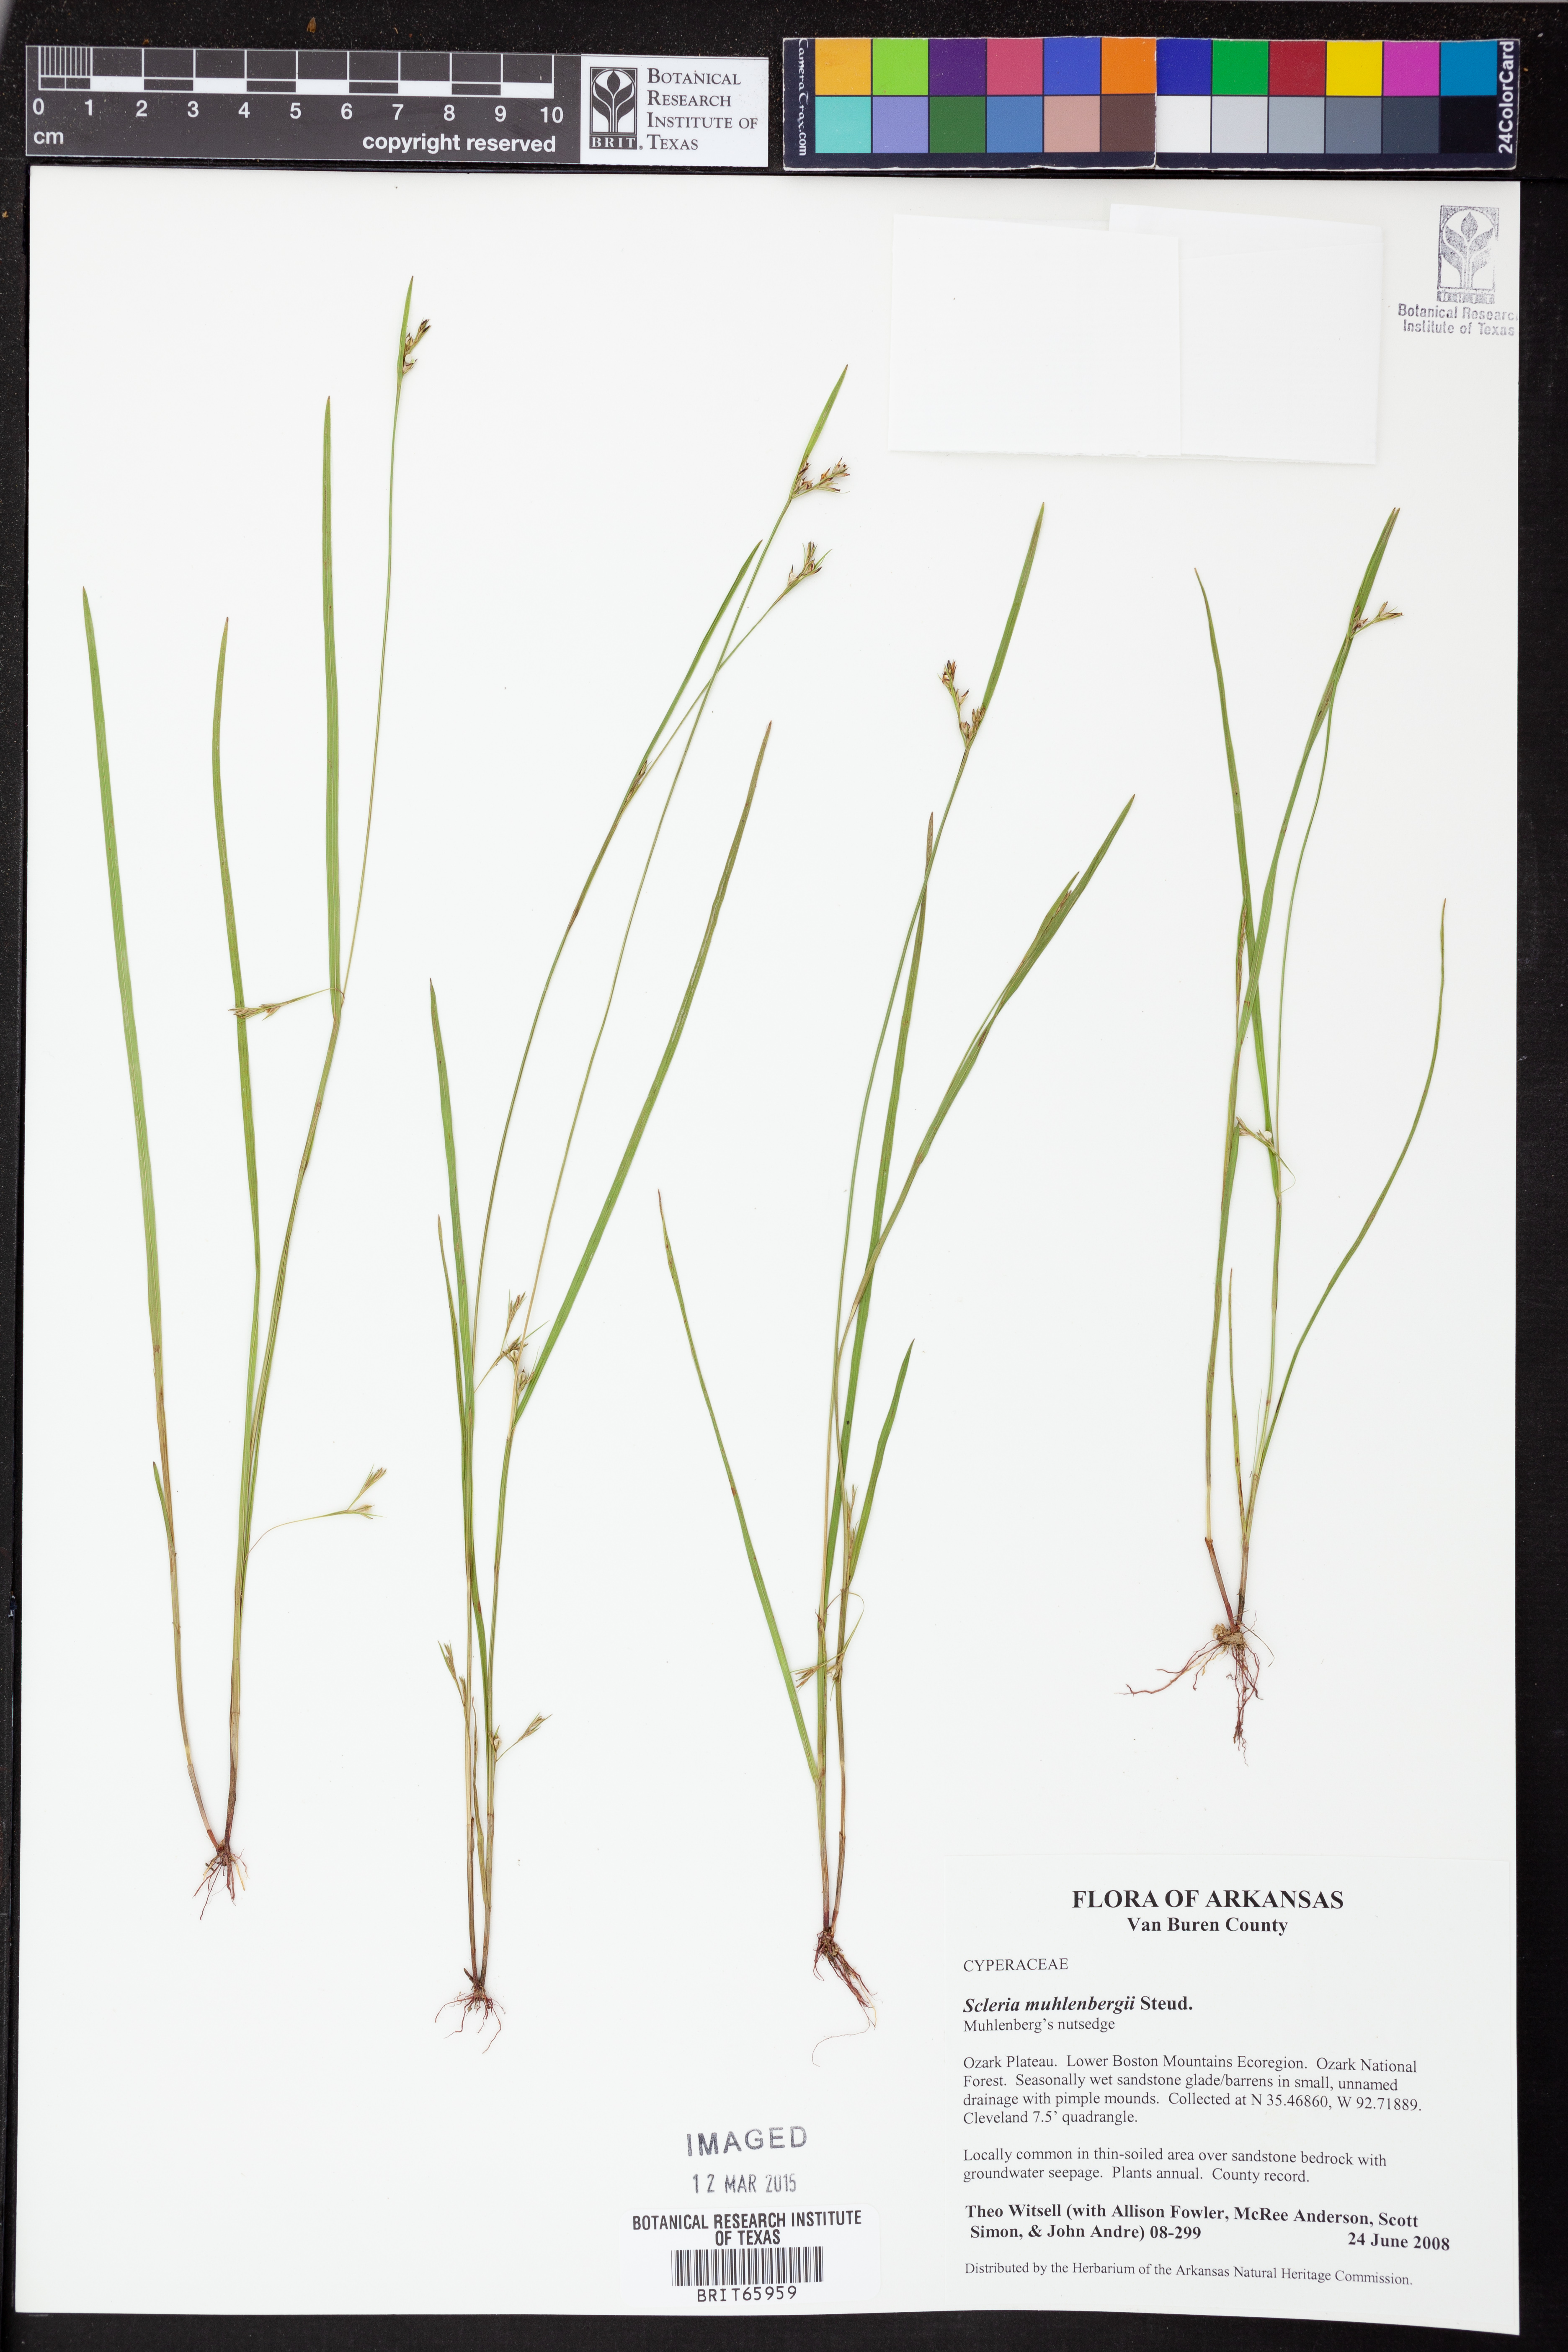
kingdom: Plantae
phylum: Tracheophyta
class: Liliopsida
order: Poales
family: Cyperaceae
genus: Scleria
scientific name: Scleria muhlenbergii
